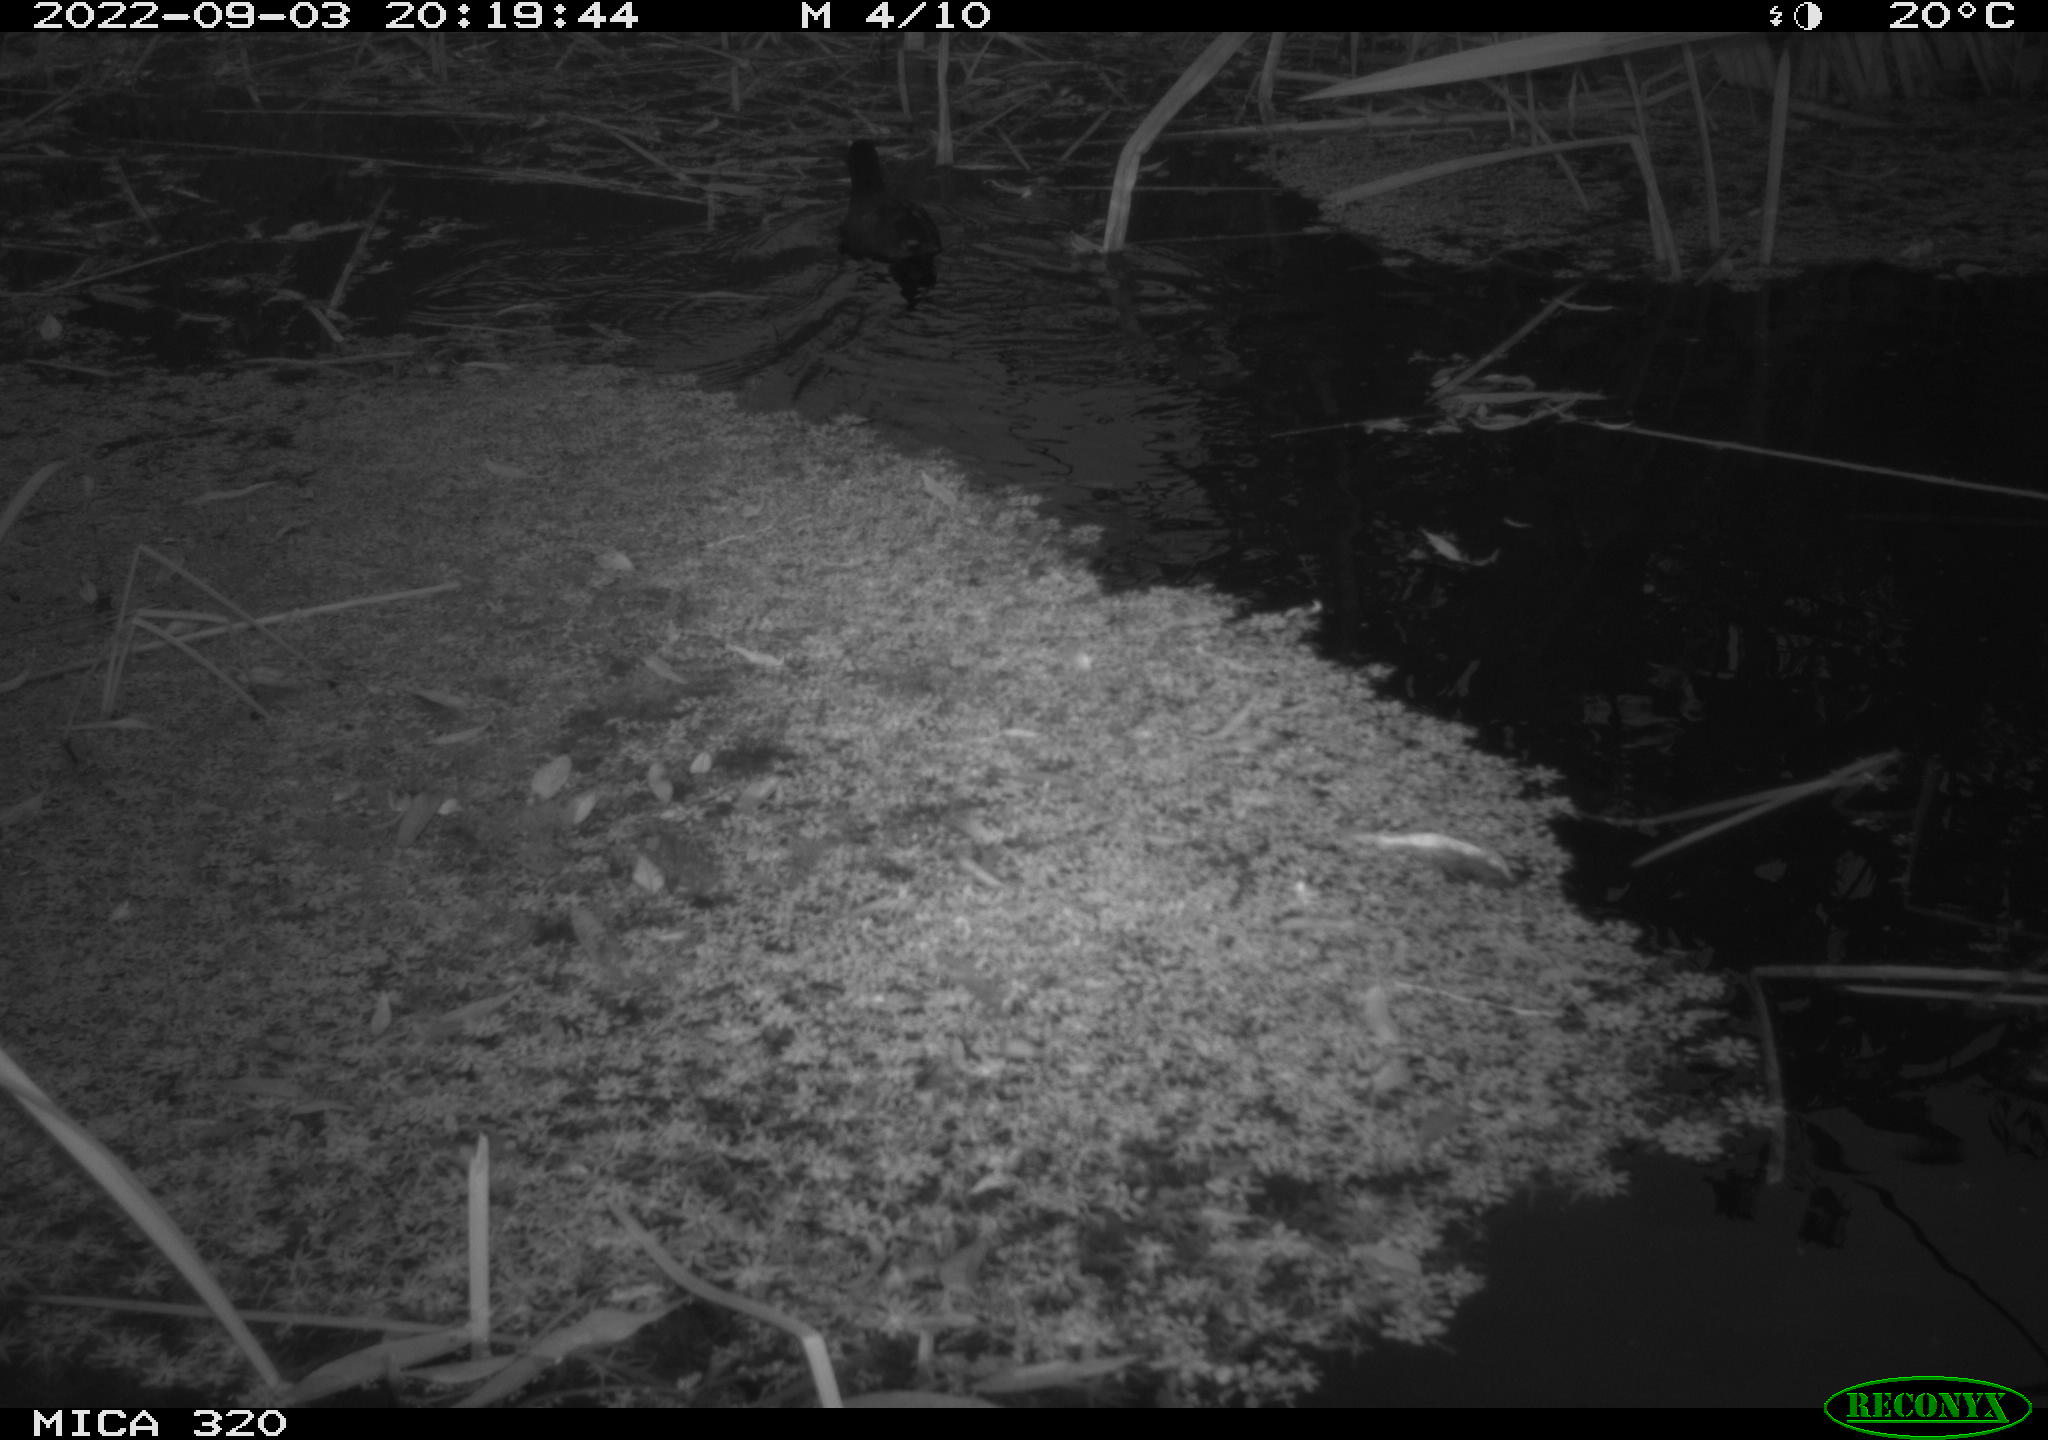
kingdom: Animalia
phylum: Chordata
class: Aves
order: Gruiformes
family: Rallidae
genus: Gallinula
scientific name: Gallinula chloropus
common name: Common moorhen
